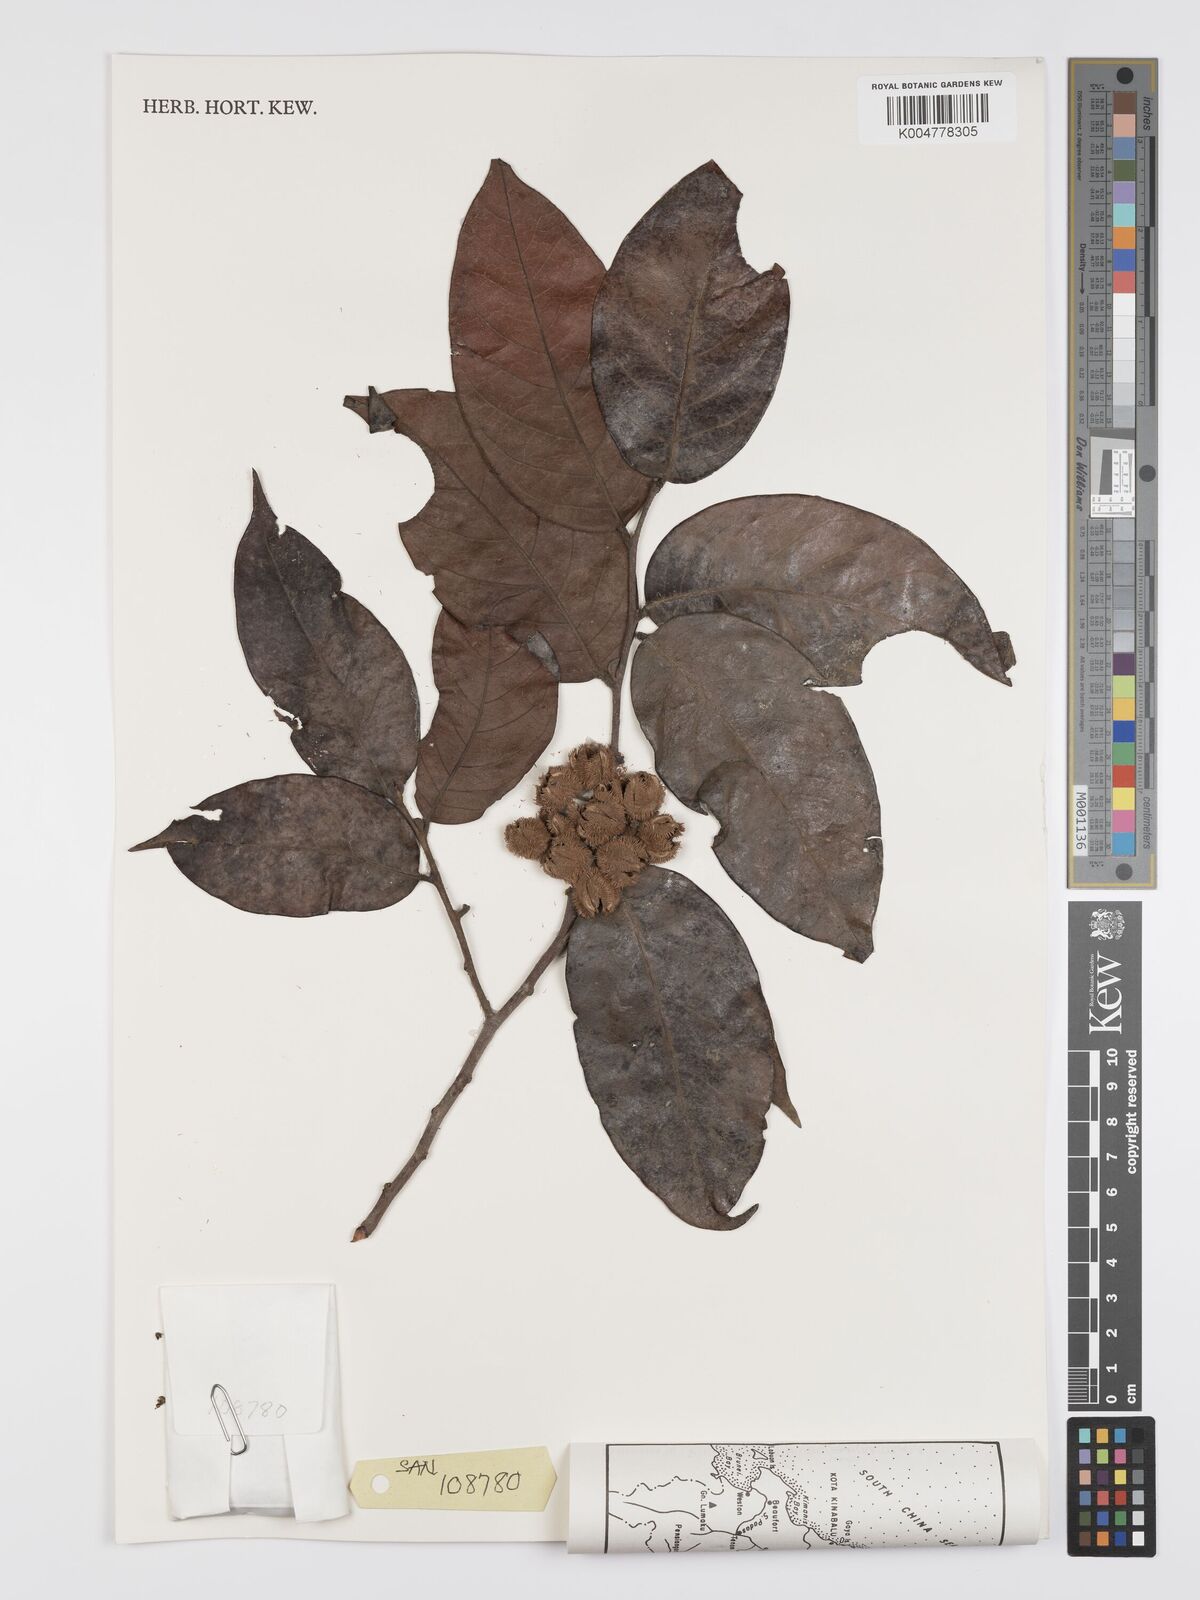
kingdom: Plantae
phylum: Tracheophyta
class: Magnoliopsida
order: Malpighiales
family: Peraceae
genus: Chaetocarpus
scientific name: Chaetocarpus castanocarpus
